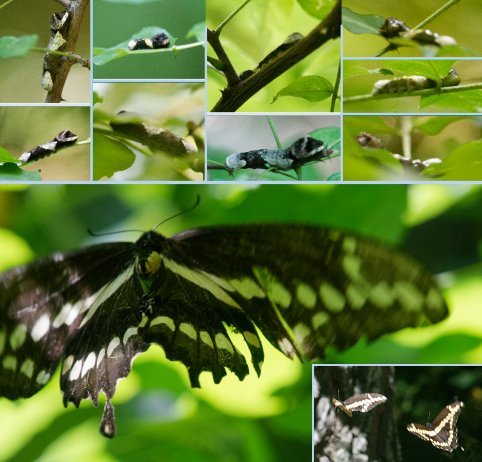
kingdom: Animalia
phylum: Arthropoda
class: Insecta
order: Lepidoptera
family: Papilionidae
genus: Papilio
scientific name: Papilio cresphontes
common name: Eastern Giant Swallowtail
